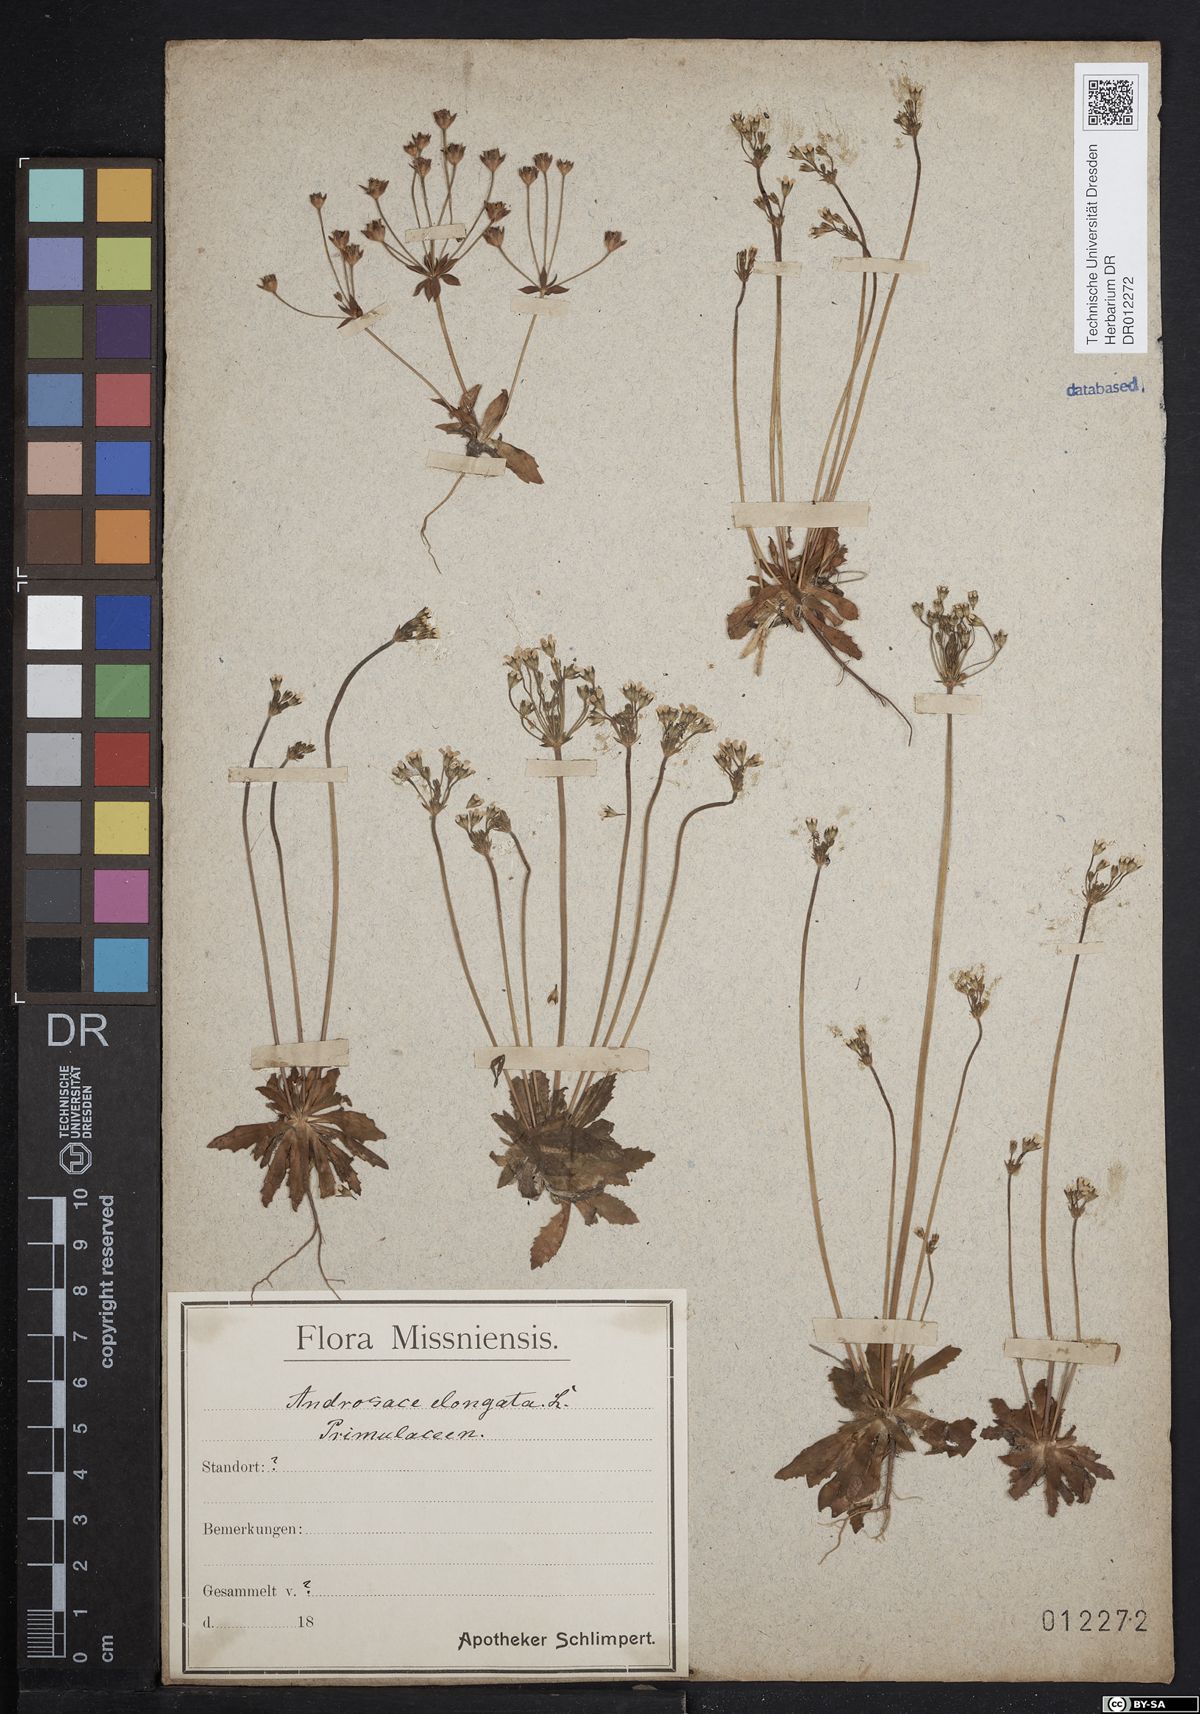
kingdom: Plantae
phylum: Tracheophyta
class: Magnoliopsida
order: Ericales
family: Primulaceae
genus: Androsace
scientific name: Androsace elongata
